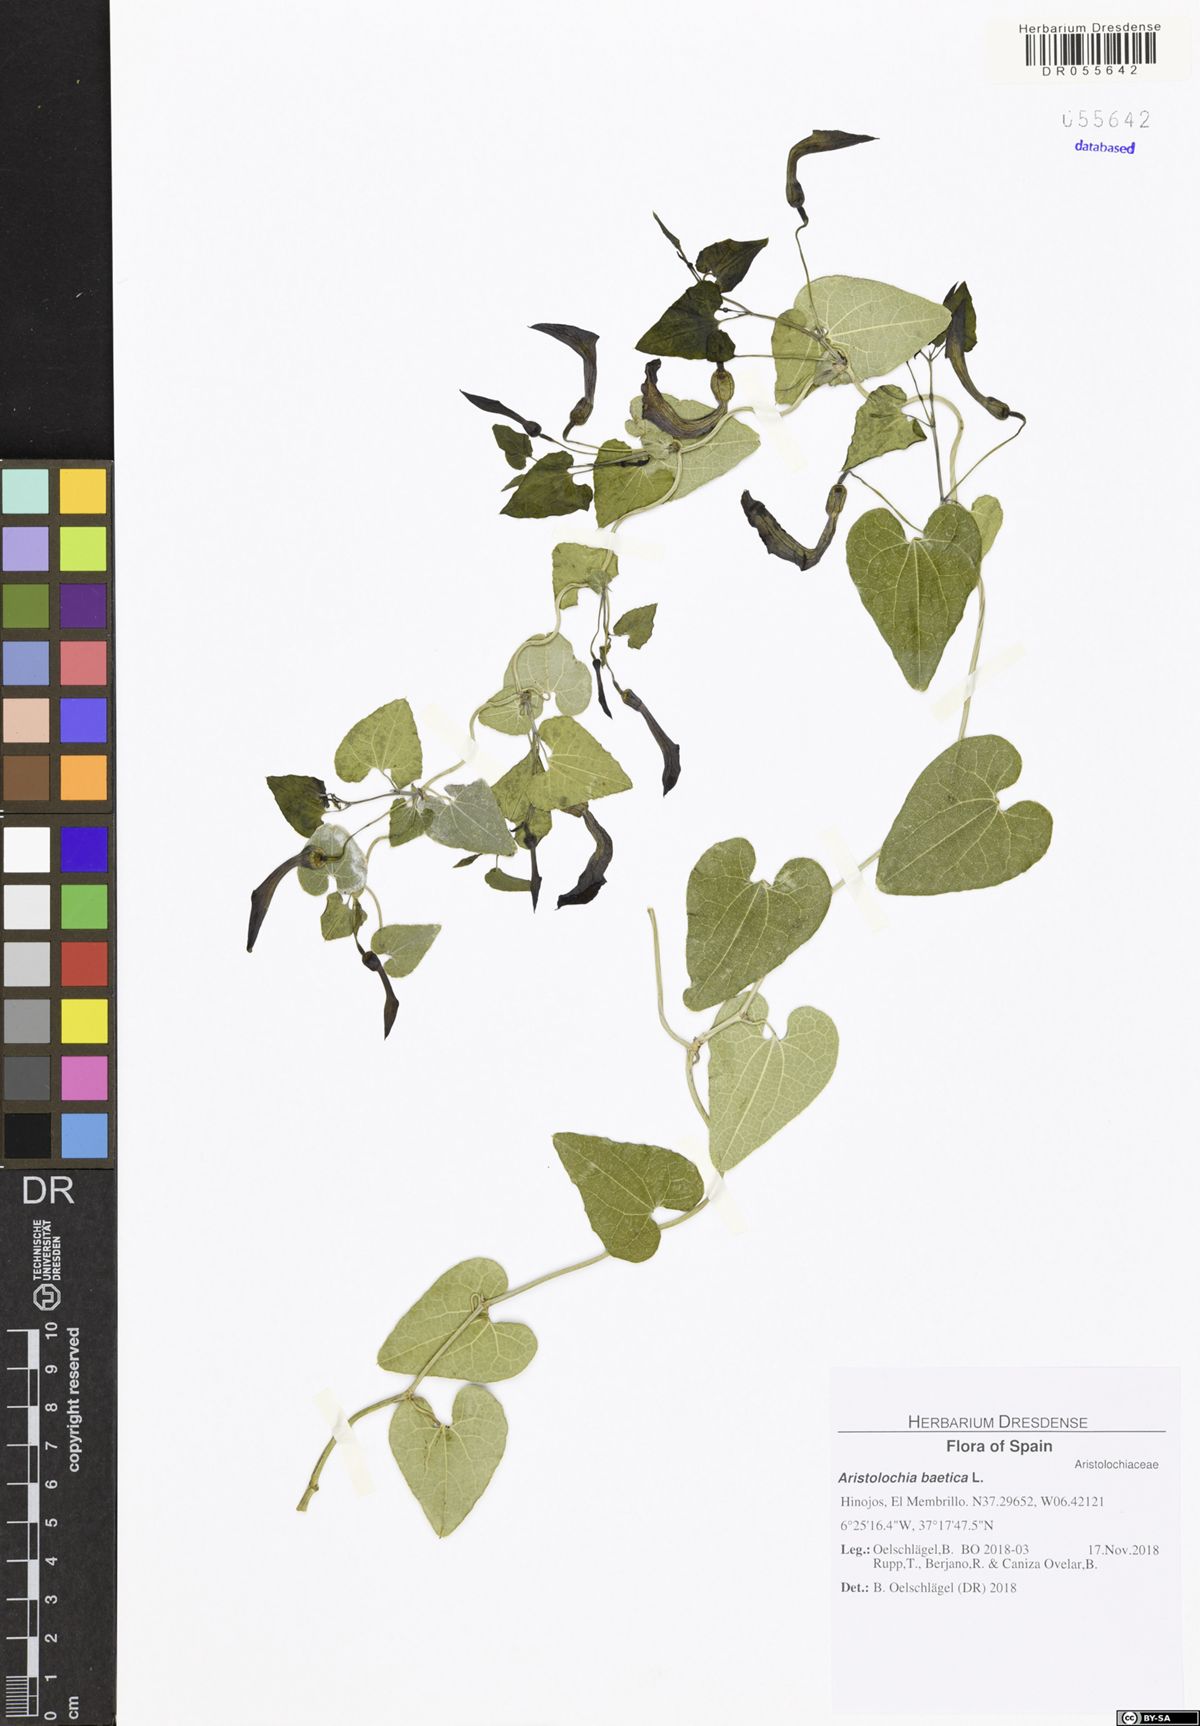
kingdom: Plantae
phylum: Tracheophyta
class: Magnoliopsida
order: Piperales
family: Aristolochiaceae
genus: Aristolochia
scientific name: Aristolochia baetica
